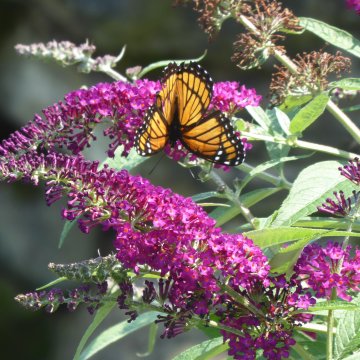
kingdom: Animalia
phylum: Arthropoda
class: Insecta
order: Lepidoptera
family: Nymphalidae
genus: Limenitis
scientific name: Limenitis archippus
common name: Viceroy
